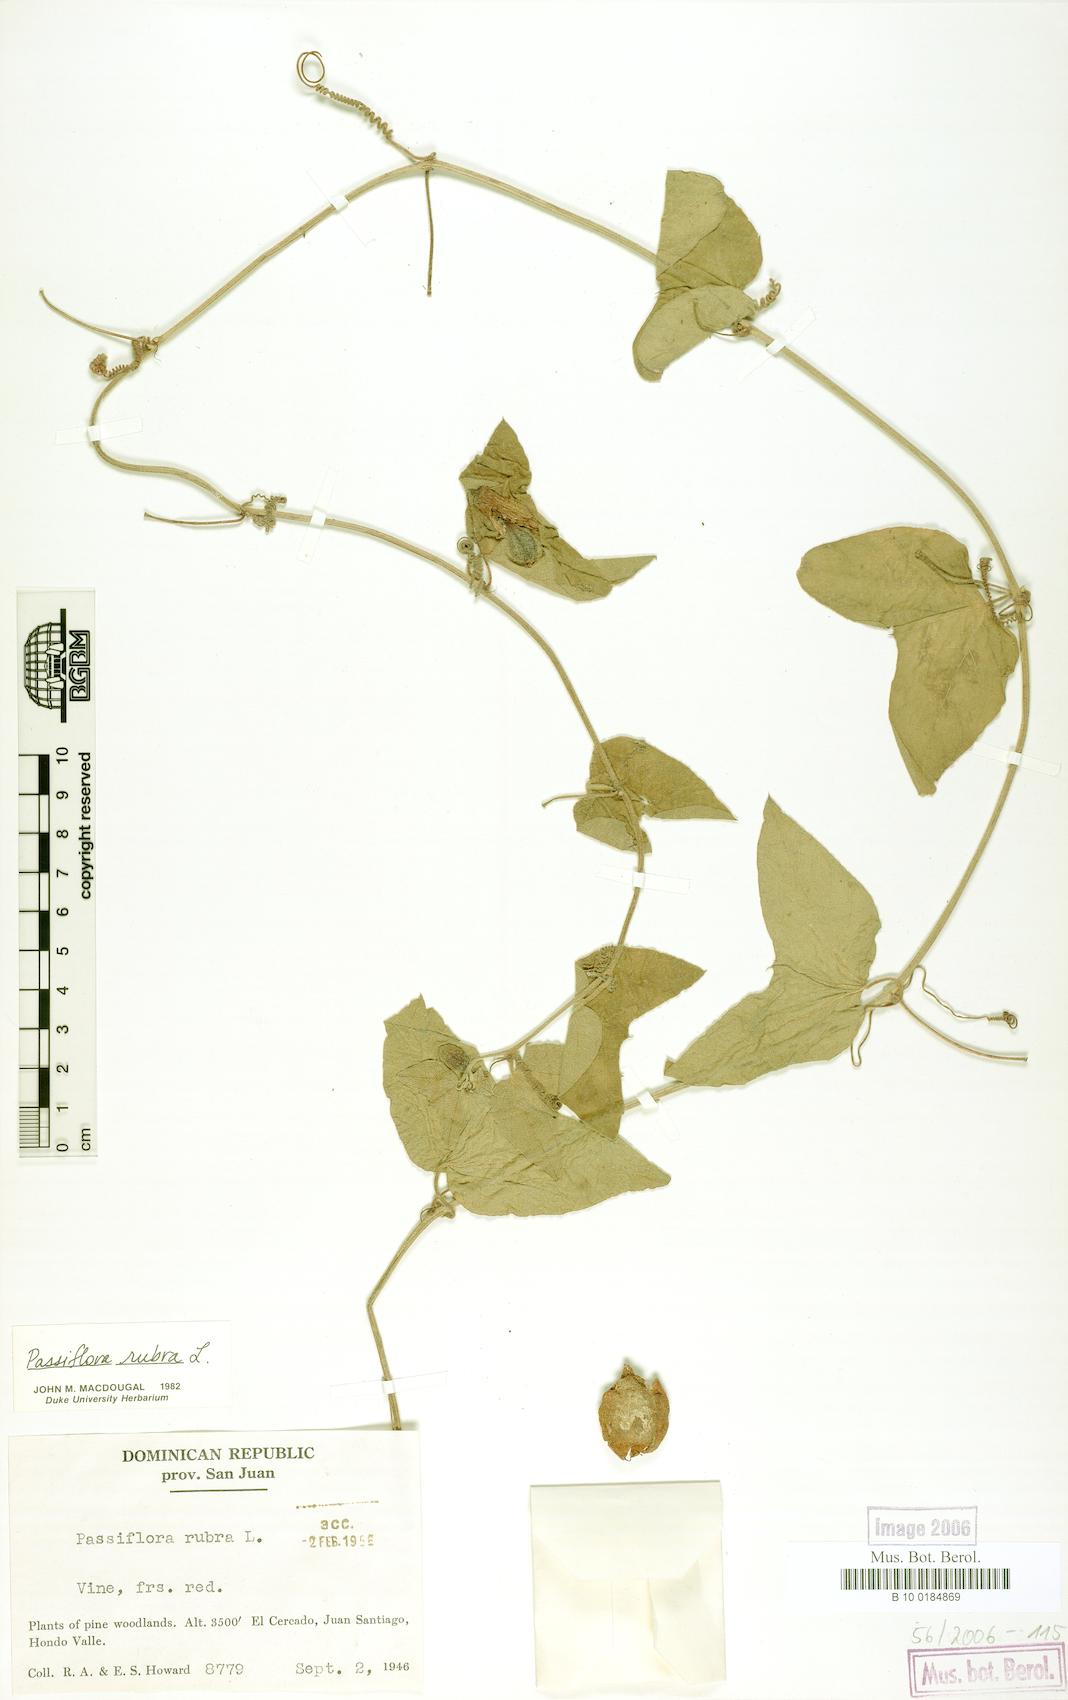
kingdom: Plantae
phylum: Tracheophyta
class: Magnoliopsida
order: Malpighiales
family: Passifloraceae
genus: Passiflora
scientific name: Passiflora rubra
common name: Snakeberry vine
